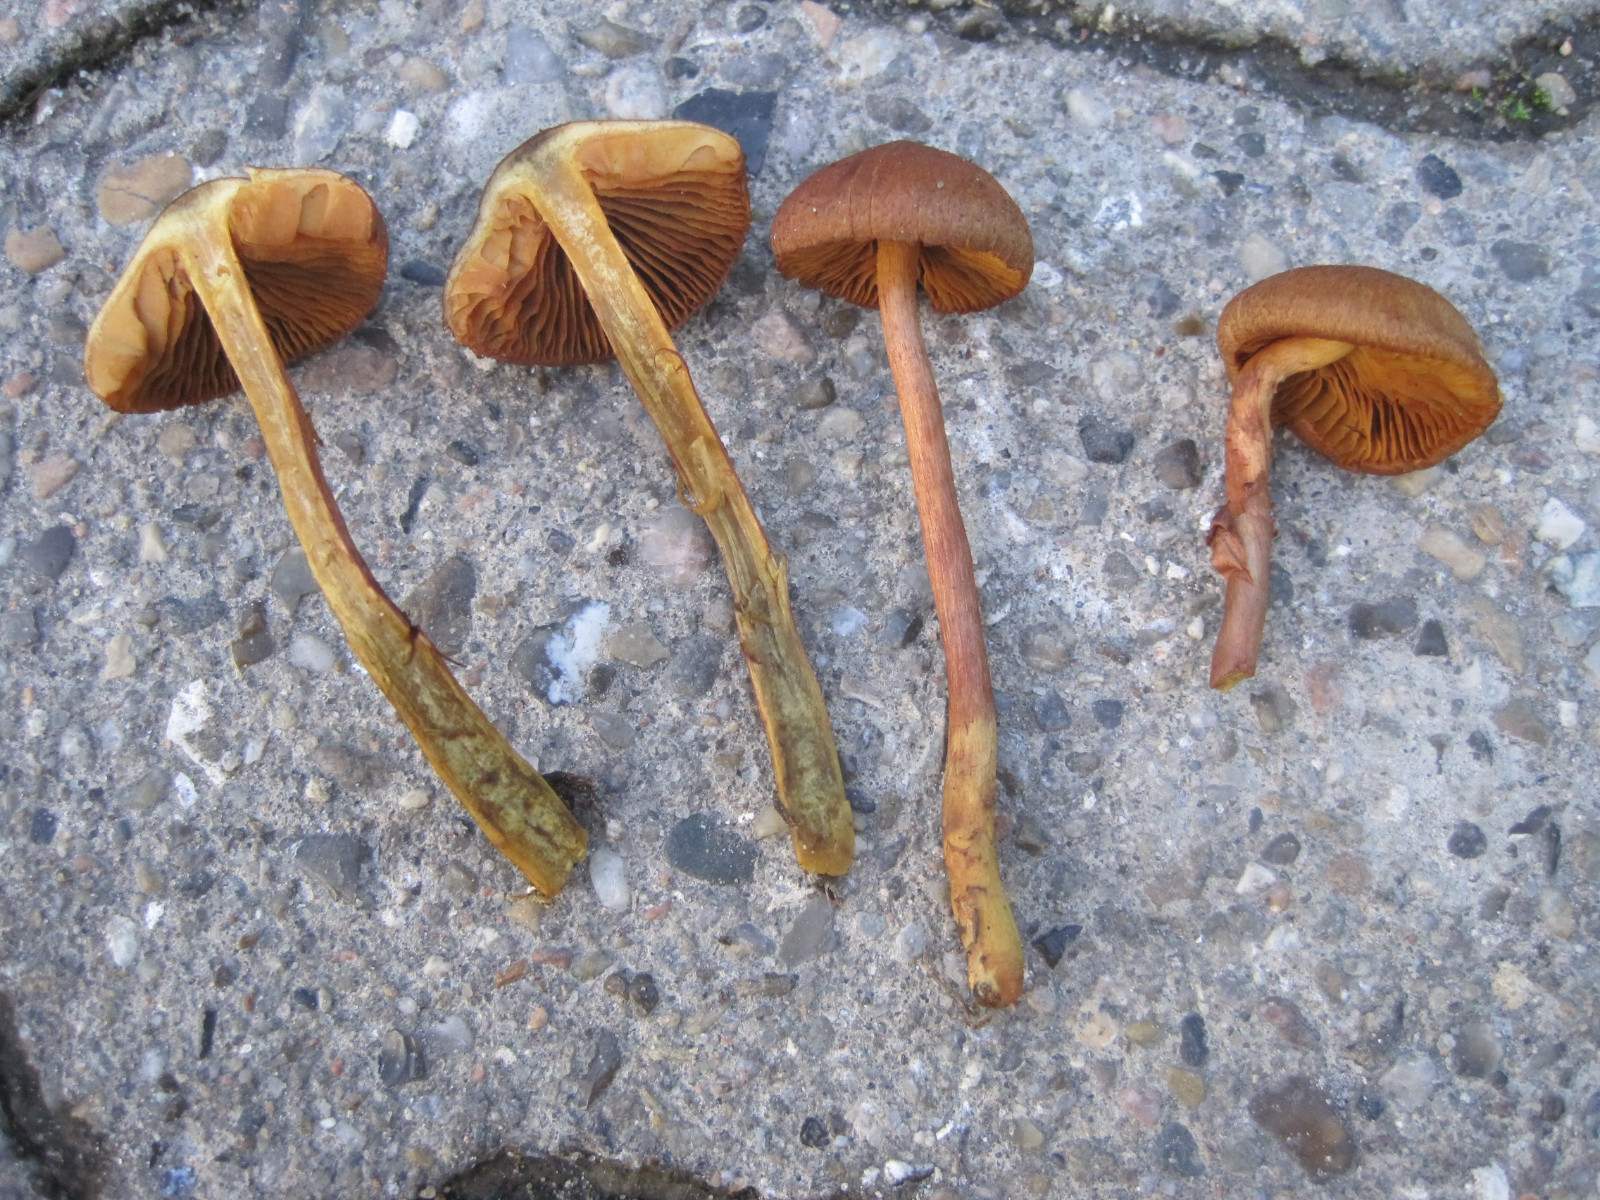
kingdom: Fungi
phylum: Basidiomycota
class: Agaricomycetes
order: Agaricales
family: Cortinariaceae
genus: Cortinarius
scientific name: Cortinarius
